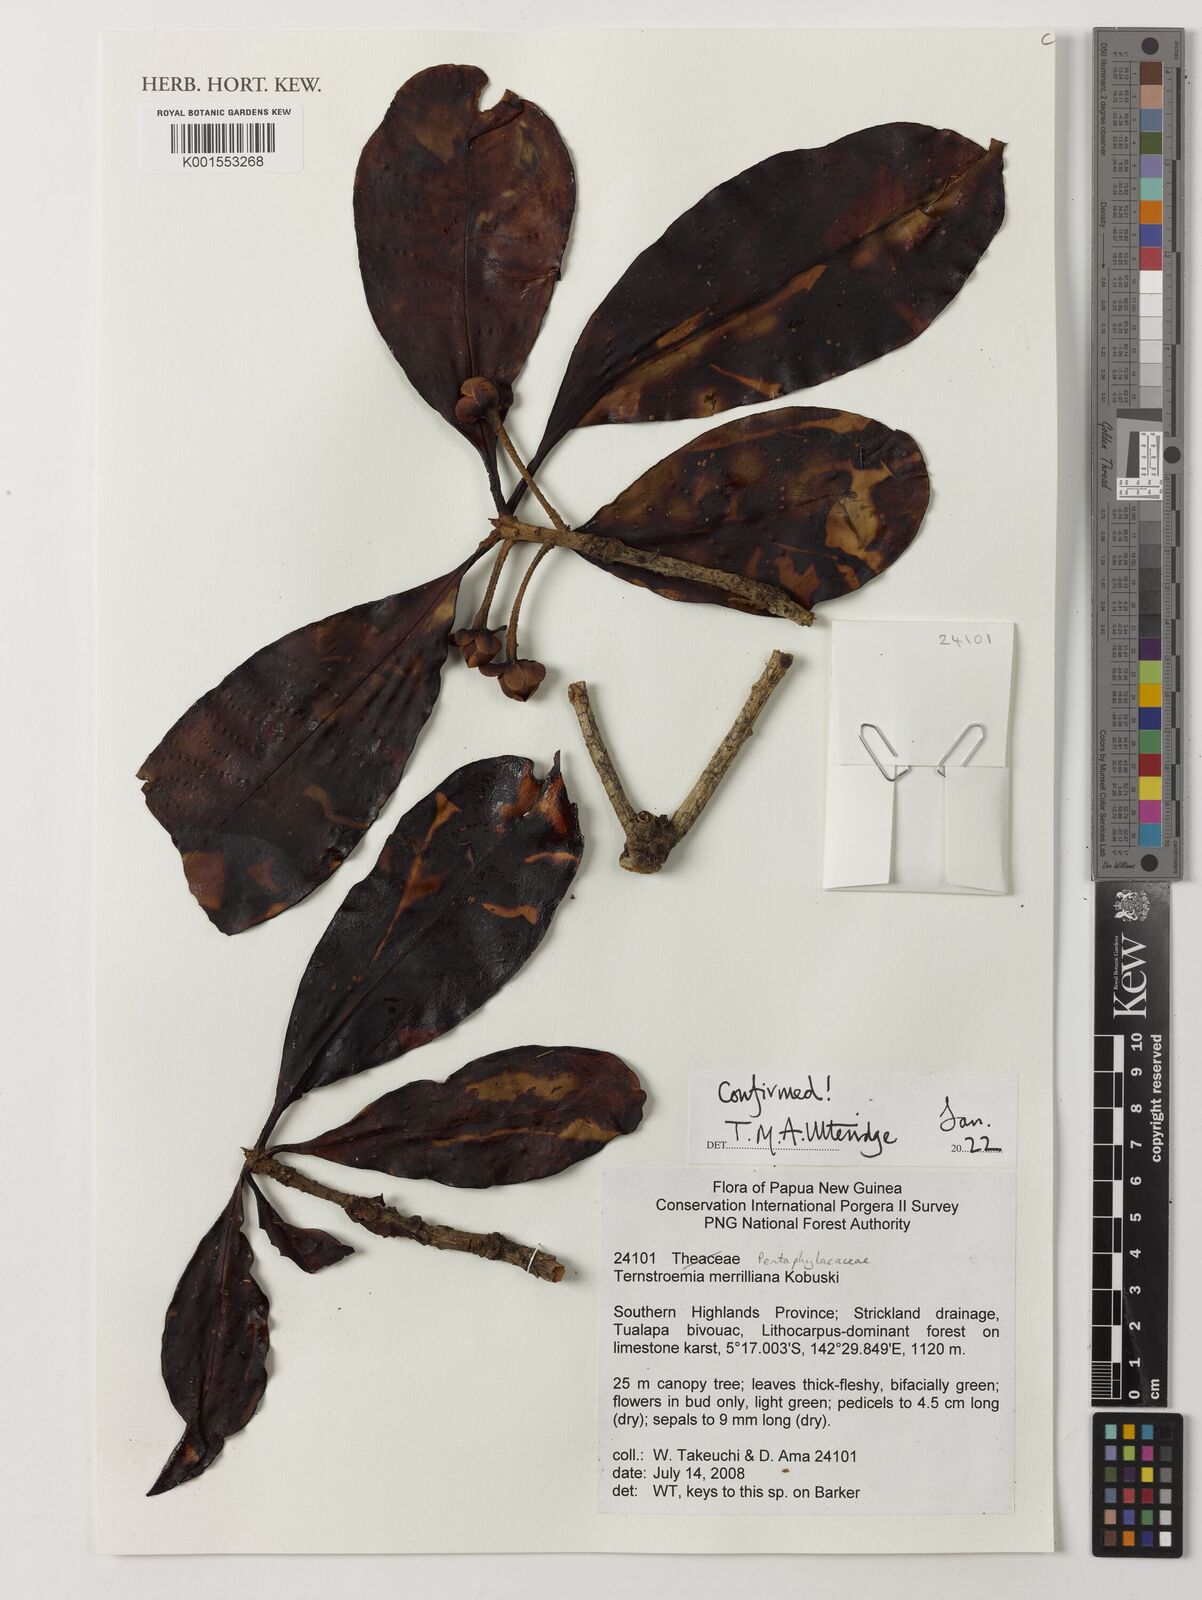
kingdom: Plantae
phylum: Tracheophyta
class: Magnoliopsida
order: Ericales
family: Pentaphylacaceae
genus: Ternstroemia
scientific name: Ternstroemia merrilliana
